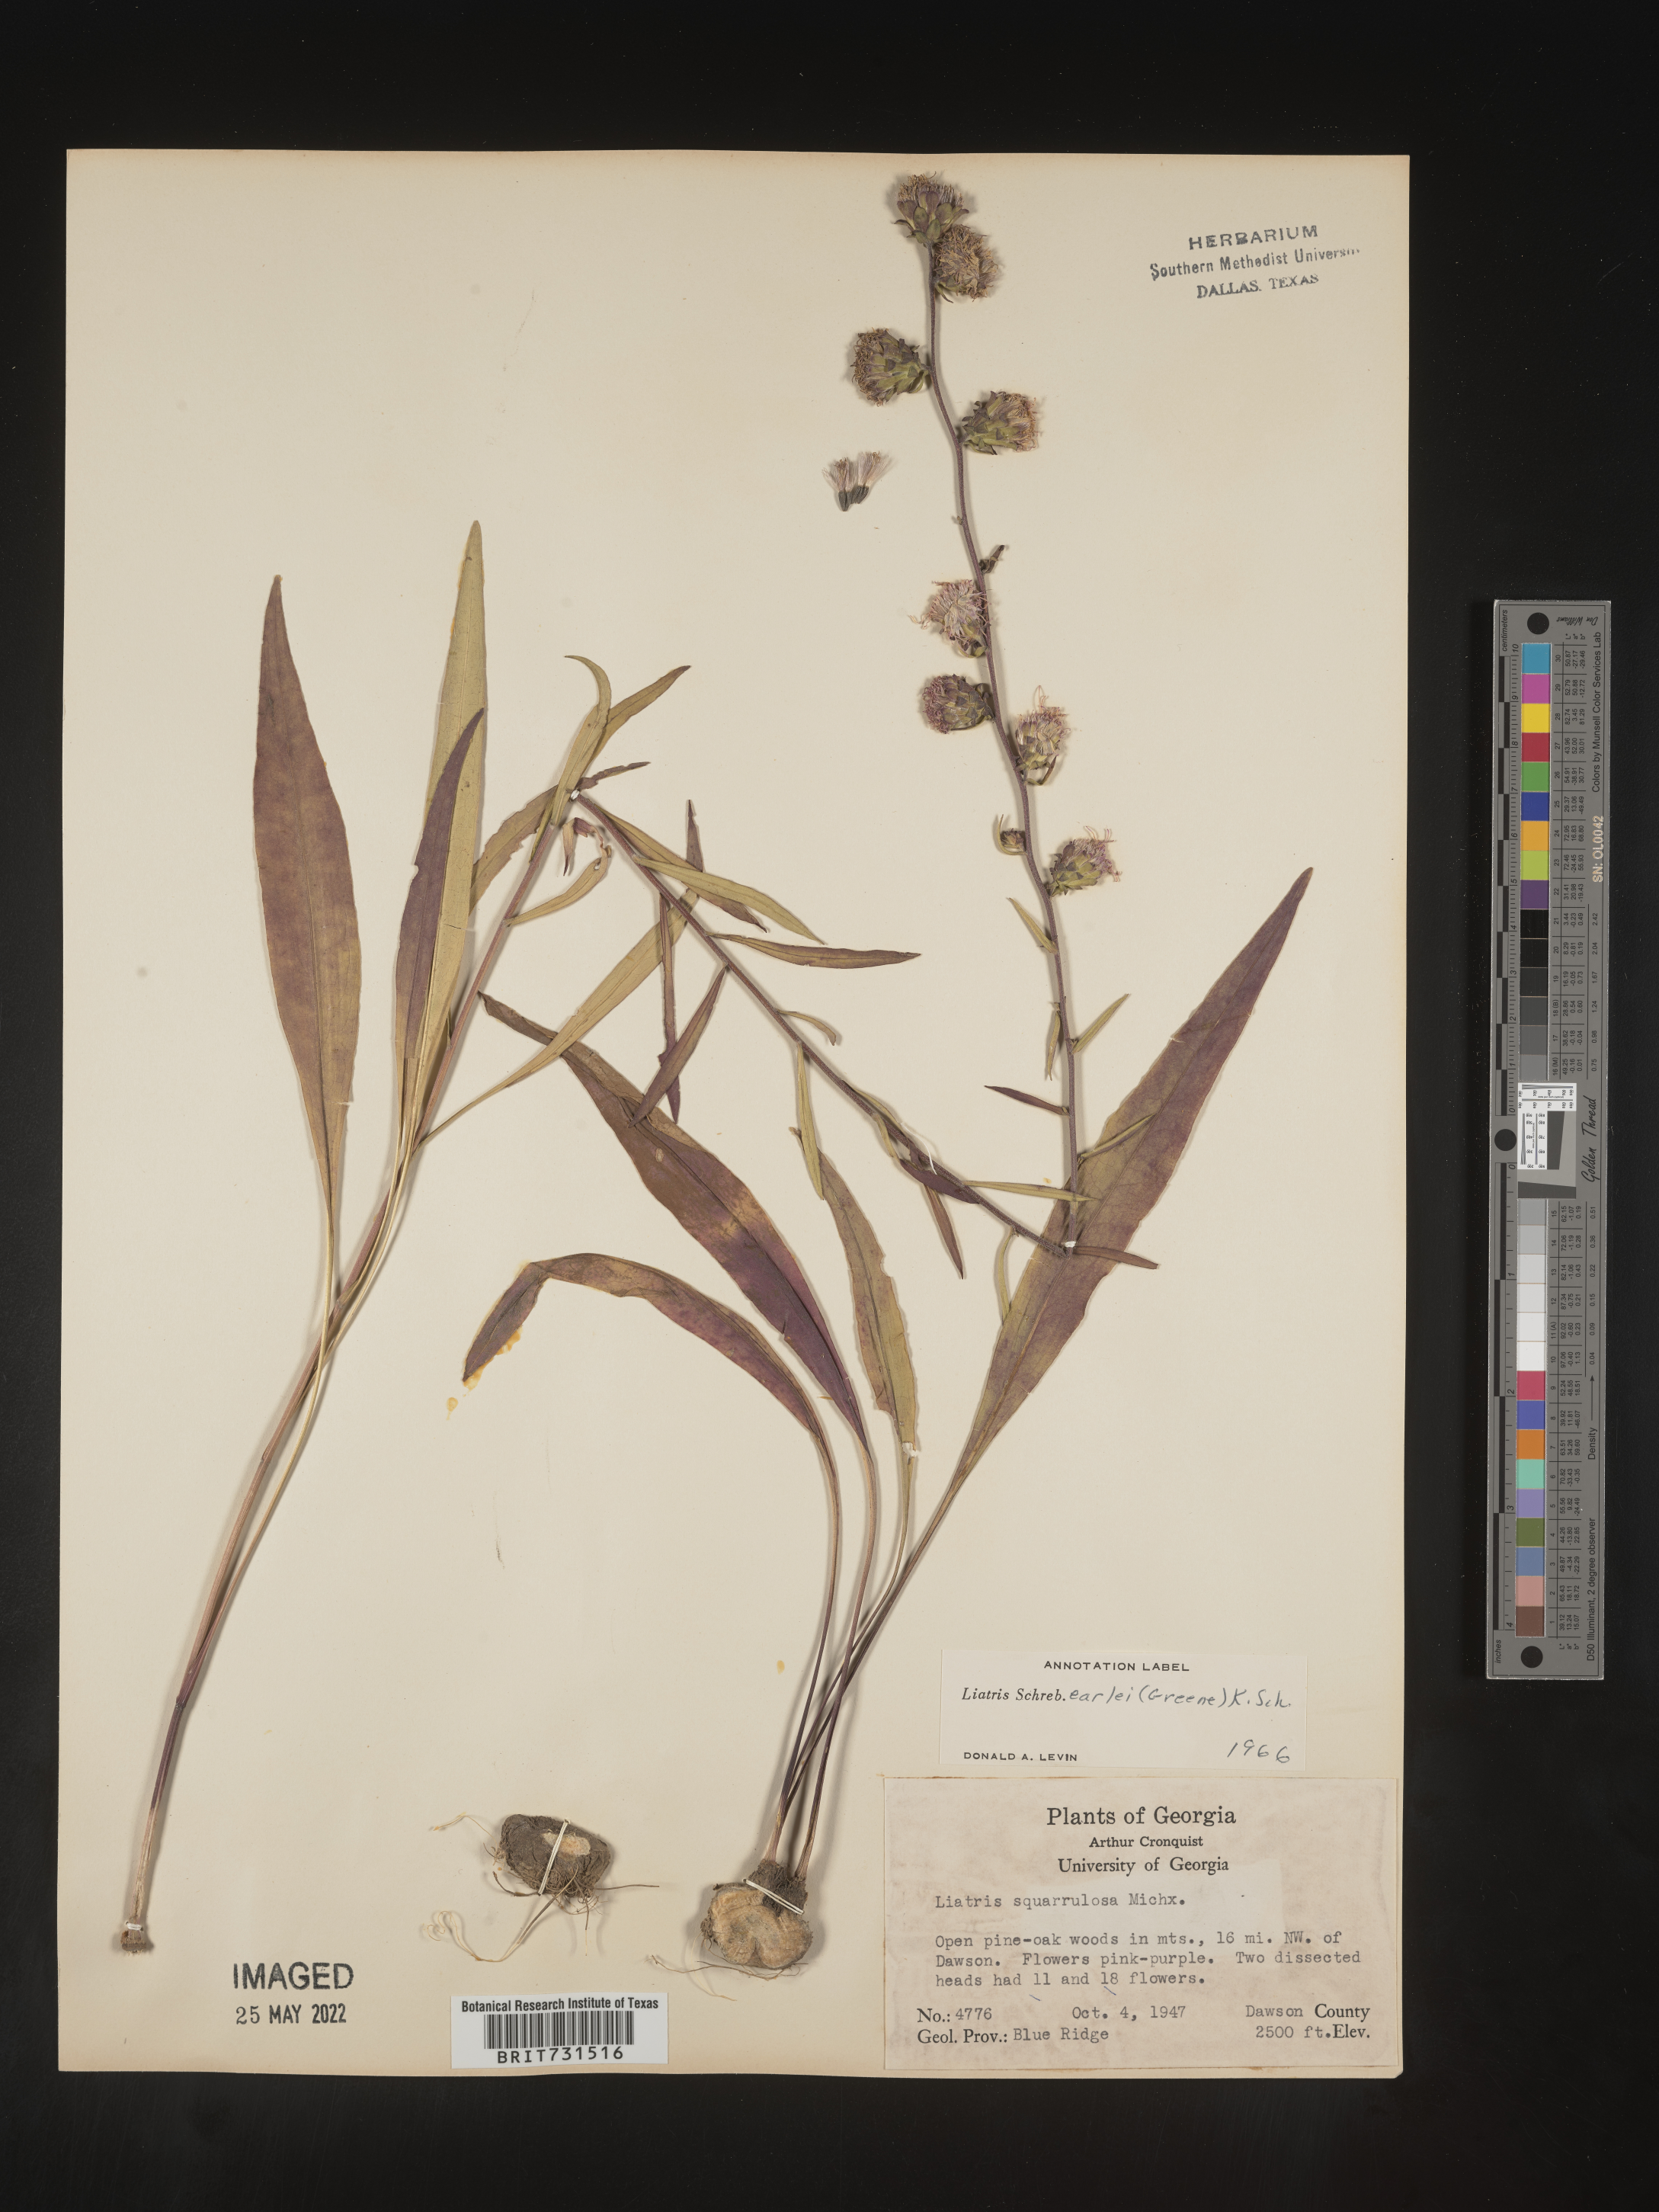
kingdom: Plantae
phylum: Tracheophyta
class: Magnoliopsida
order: Asterales
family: Asteraceae
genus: Liatris
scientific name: Liatris squarrulosa
